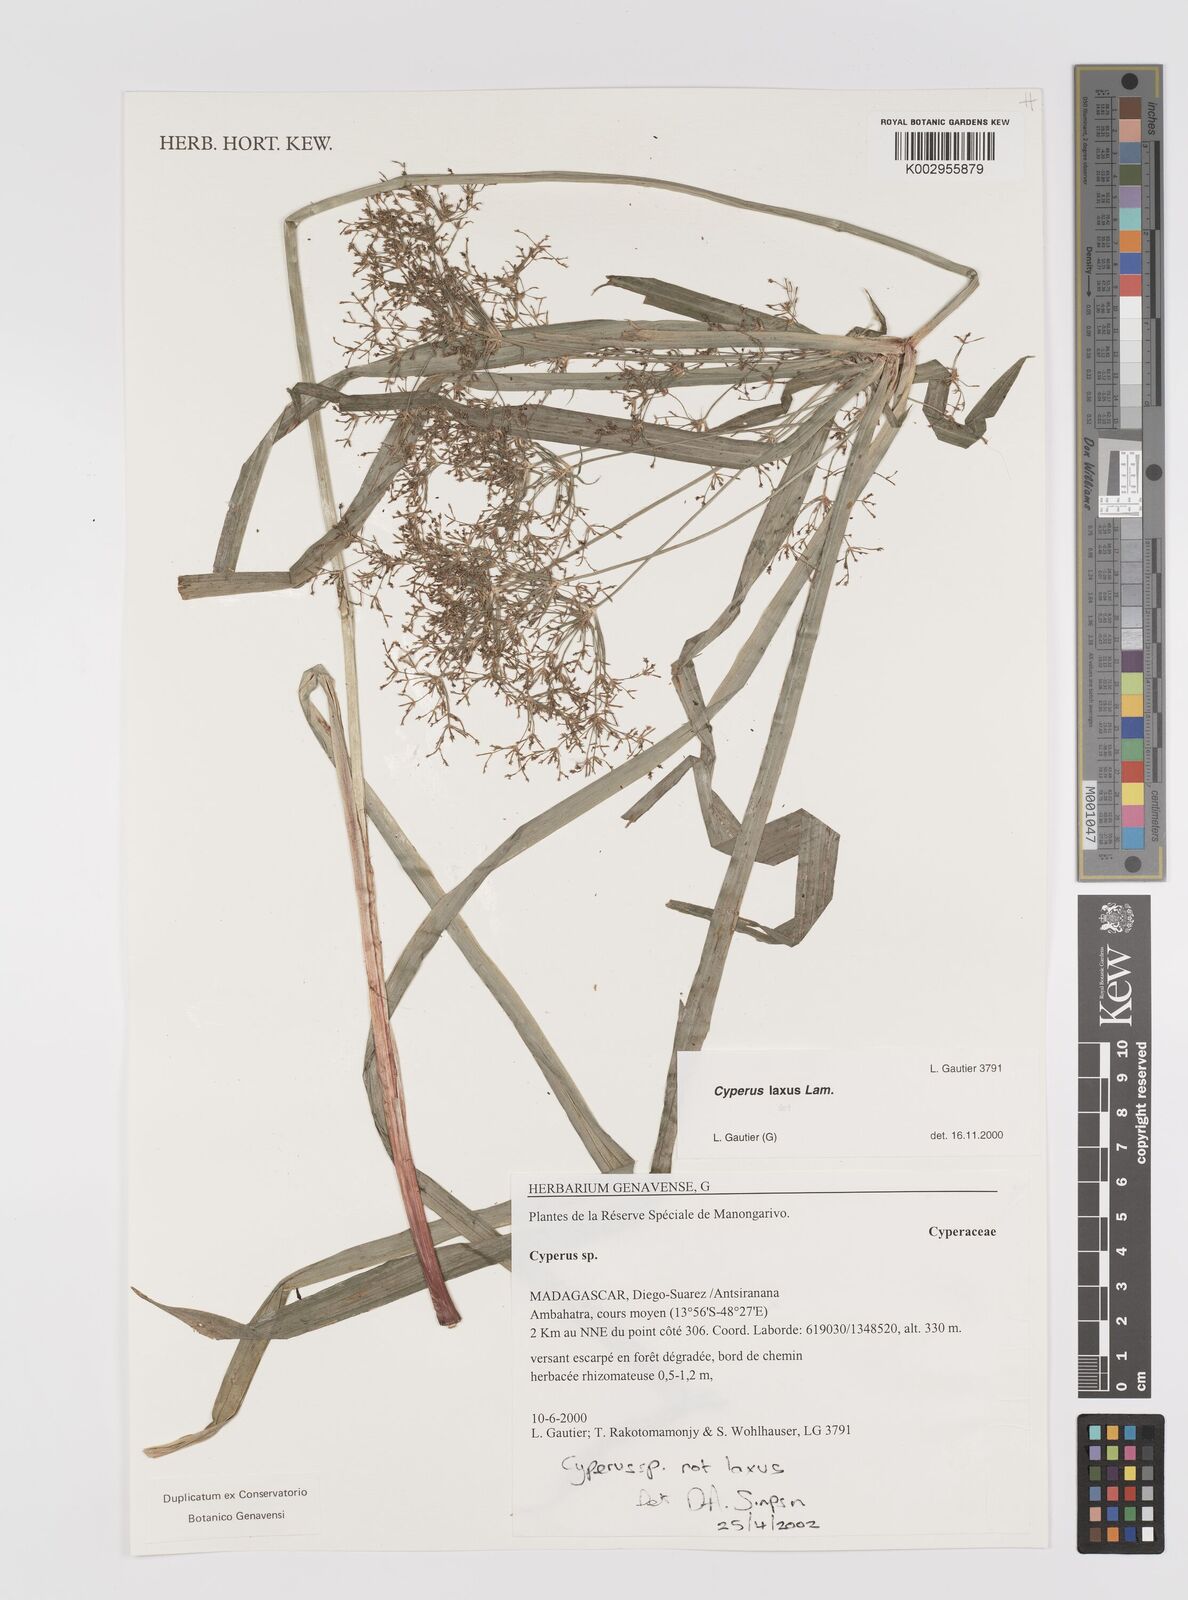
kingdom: Plantae
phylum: Tracheophyta
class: Liliopsida
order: Poales
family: Cyperaceae
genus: Cyperus
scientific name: Cyperus
